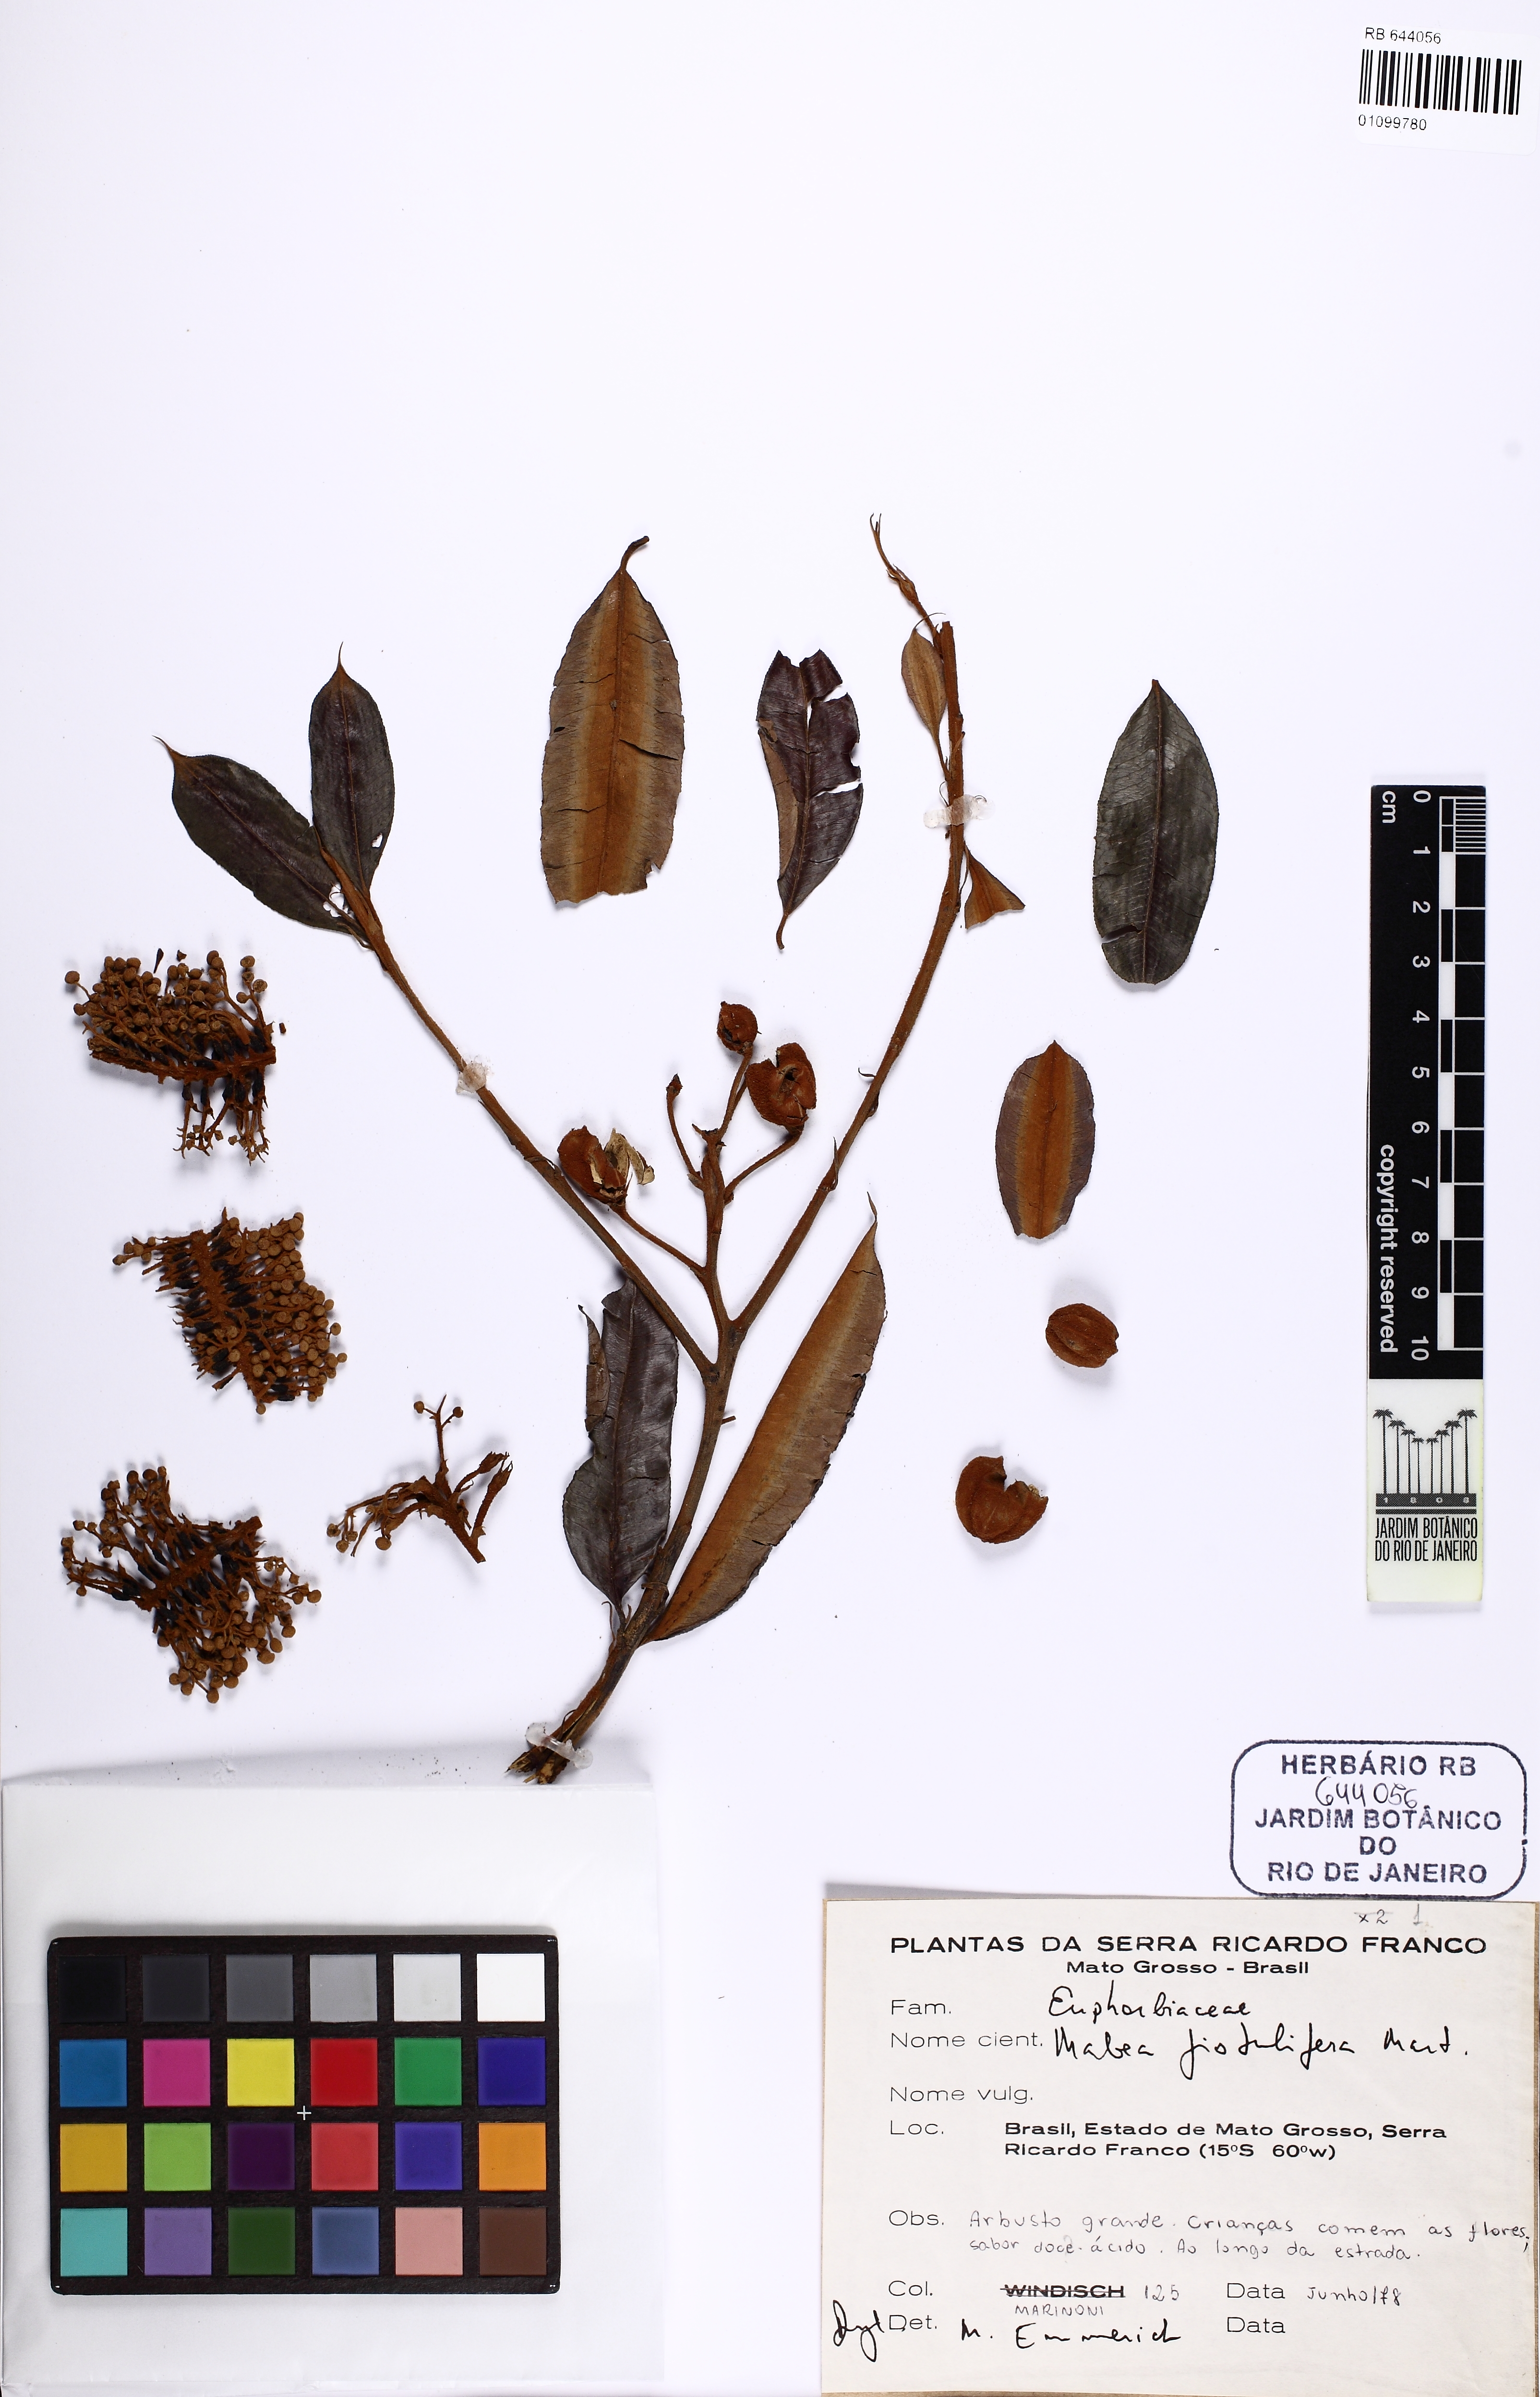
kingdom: Plantae
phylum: Tracheophyta
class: Magnoliopsida
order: Malpighiales
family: Euphorbiaceae
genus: Mabea
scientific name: Mabea fistulifera
